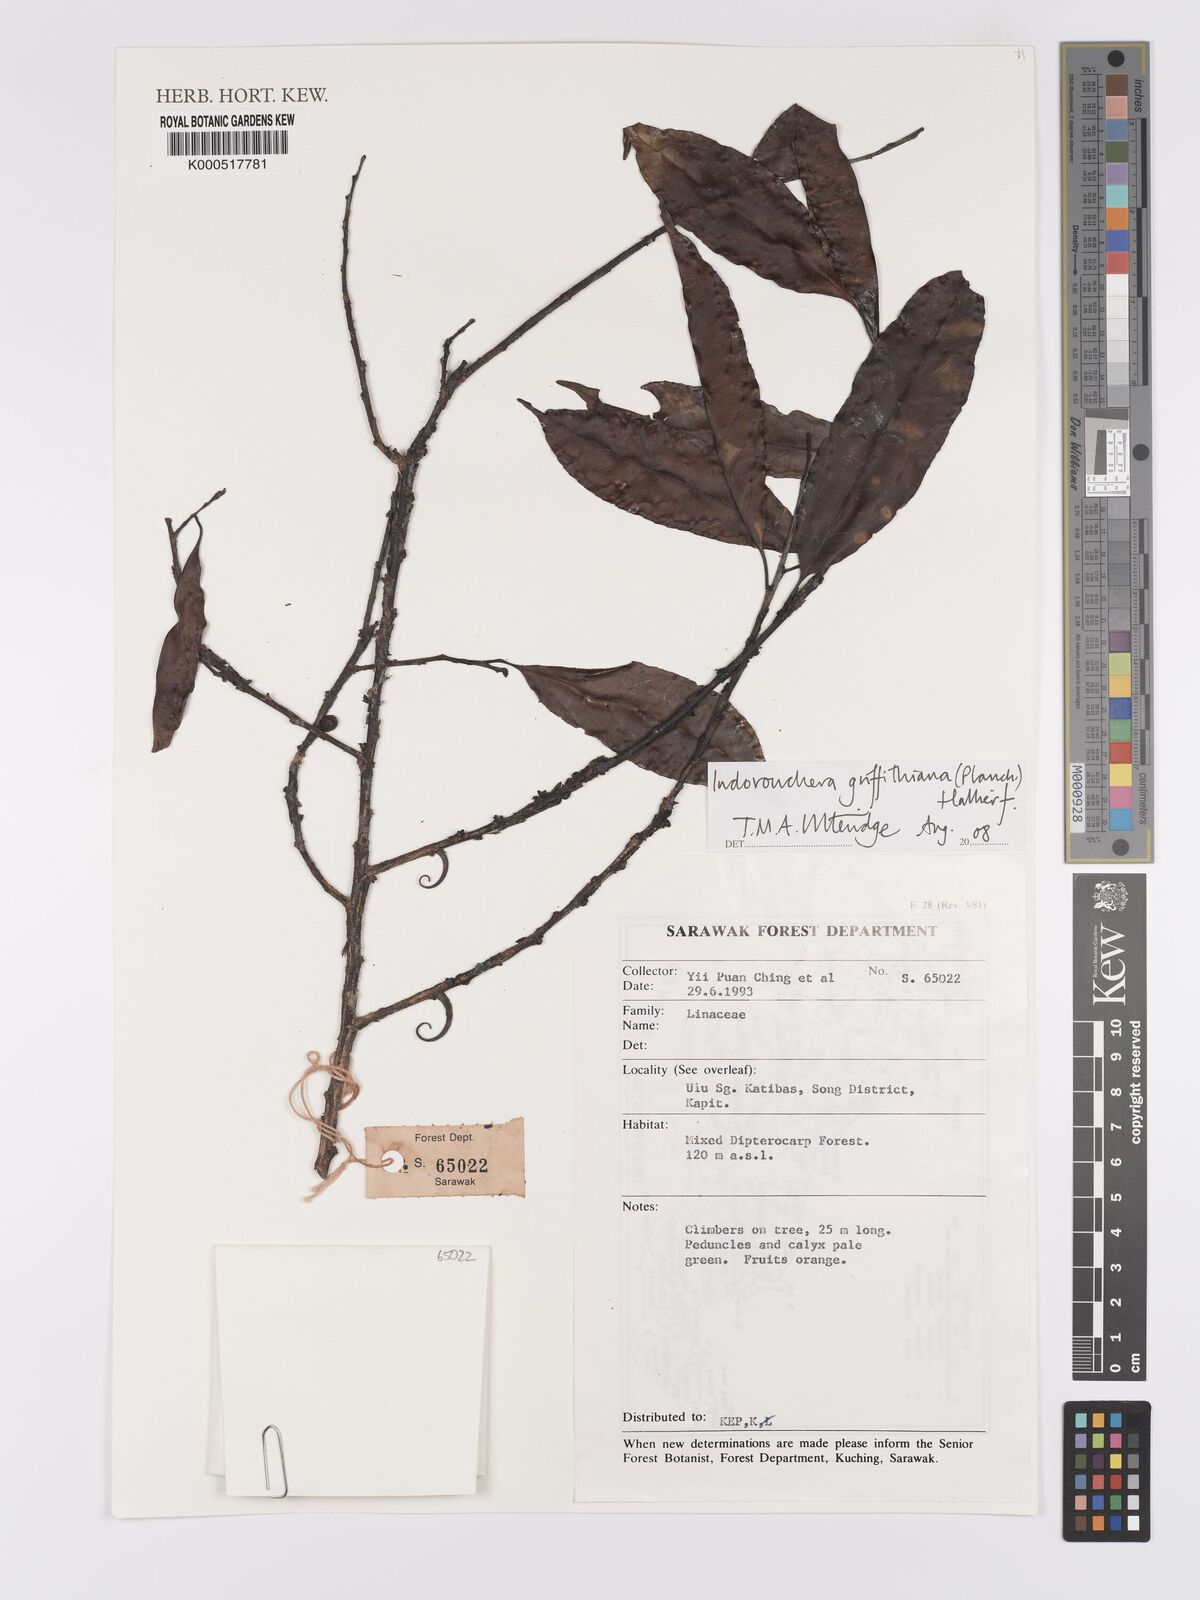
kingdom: Plantae
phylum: Tracheophyta
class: Magnoliopsida
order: Malpighiales
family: Linaceae
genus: Indorouchera
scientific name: Indorouchera griffithiana
